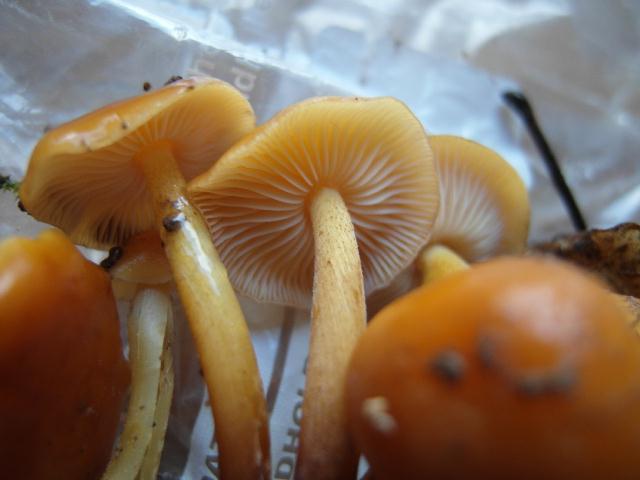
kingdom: Fungi
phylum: Basidiomycota
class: Agaricomycetes
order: Agaricales
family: Physalacriaceae
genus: Flammulina
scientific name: Flammulina velutipes
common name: gul fløjlsfod
